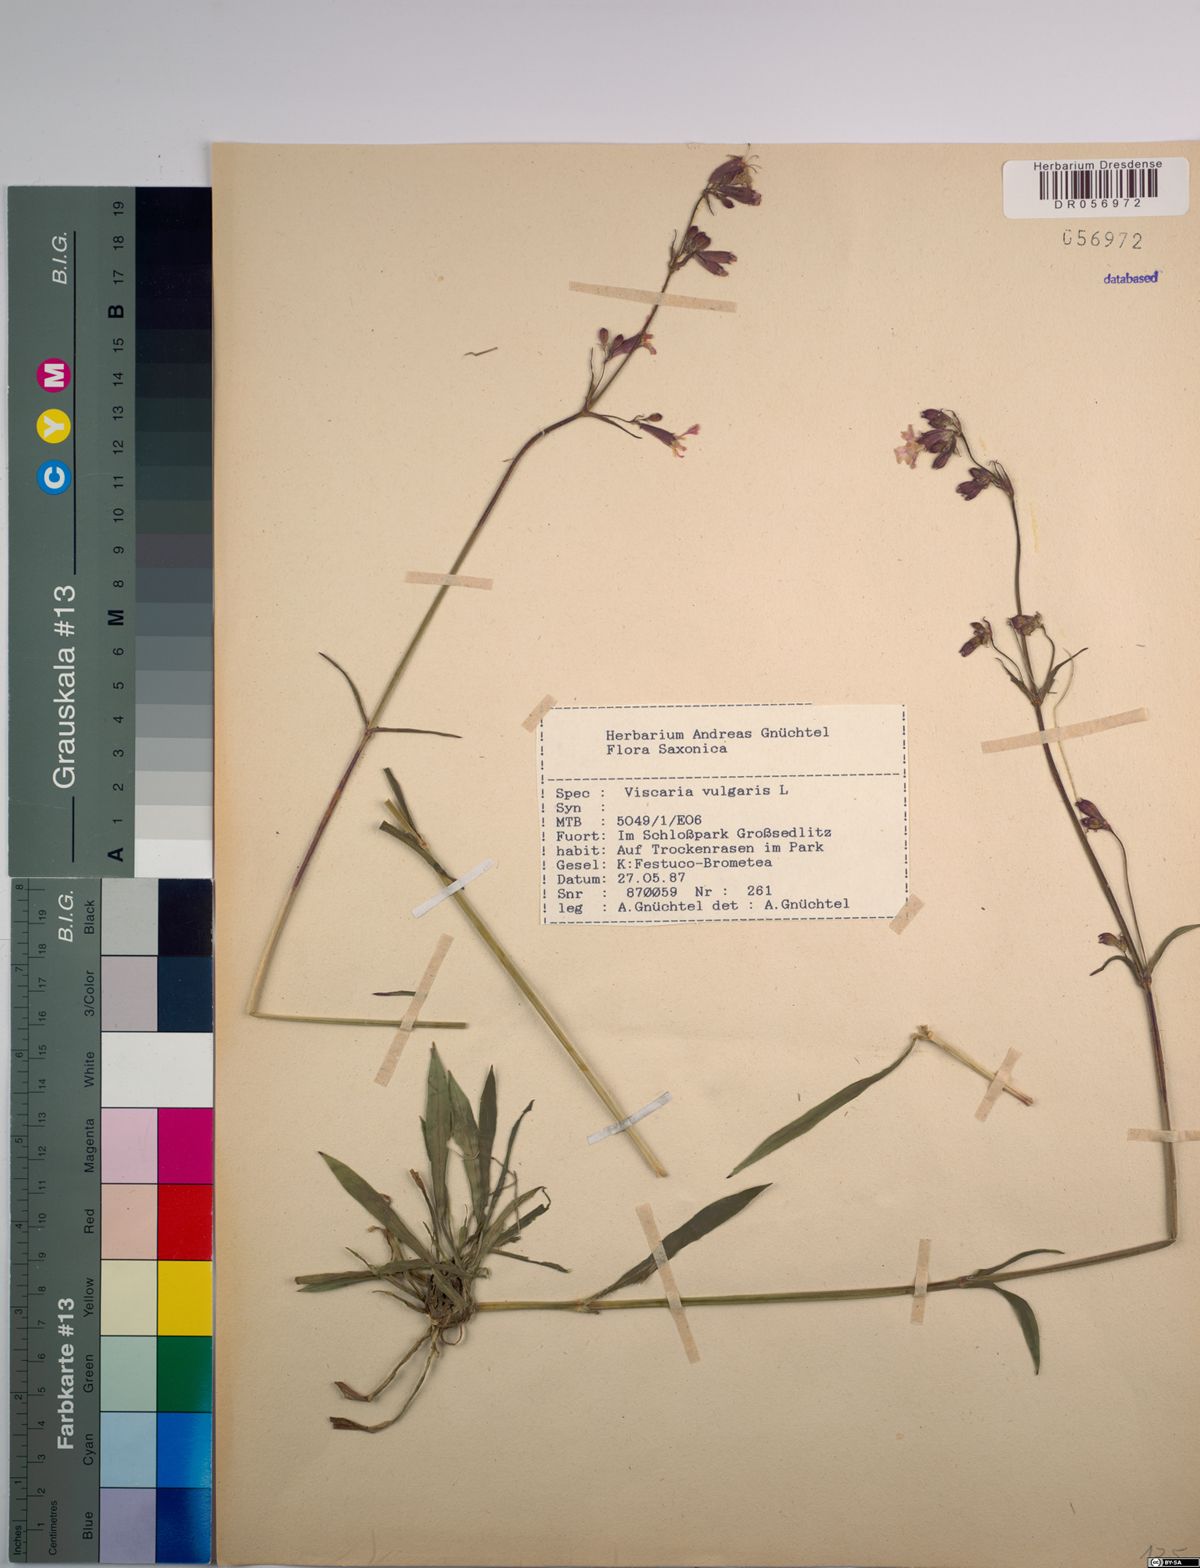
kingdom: Plantae
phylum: Tracheophyta
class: Magnoliopsida
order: Caryophyllales
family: Caryophyllaceae
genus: Viscaria
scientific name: Viscaria vulgaris
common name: Clammy campion
